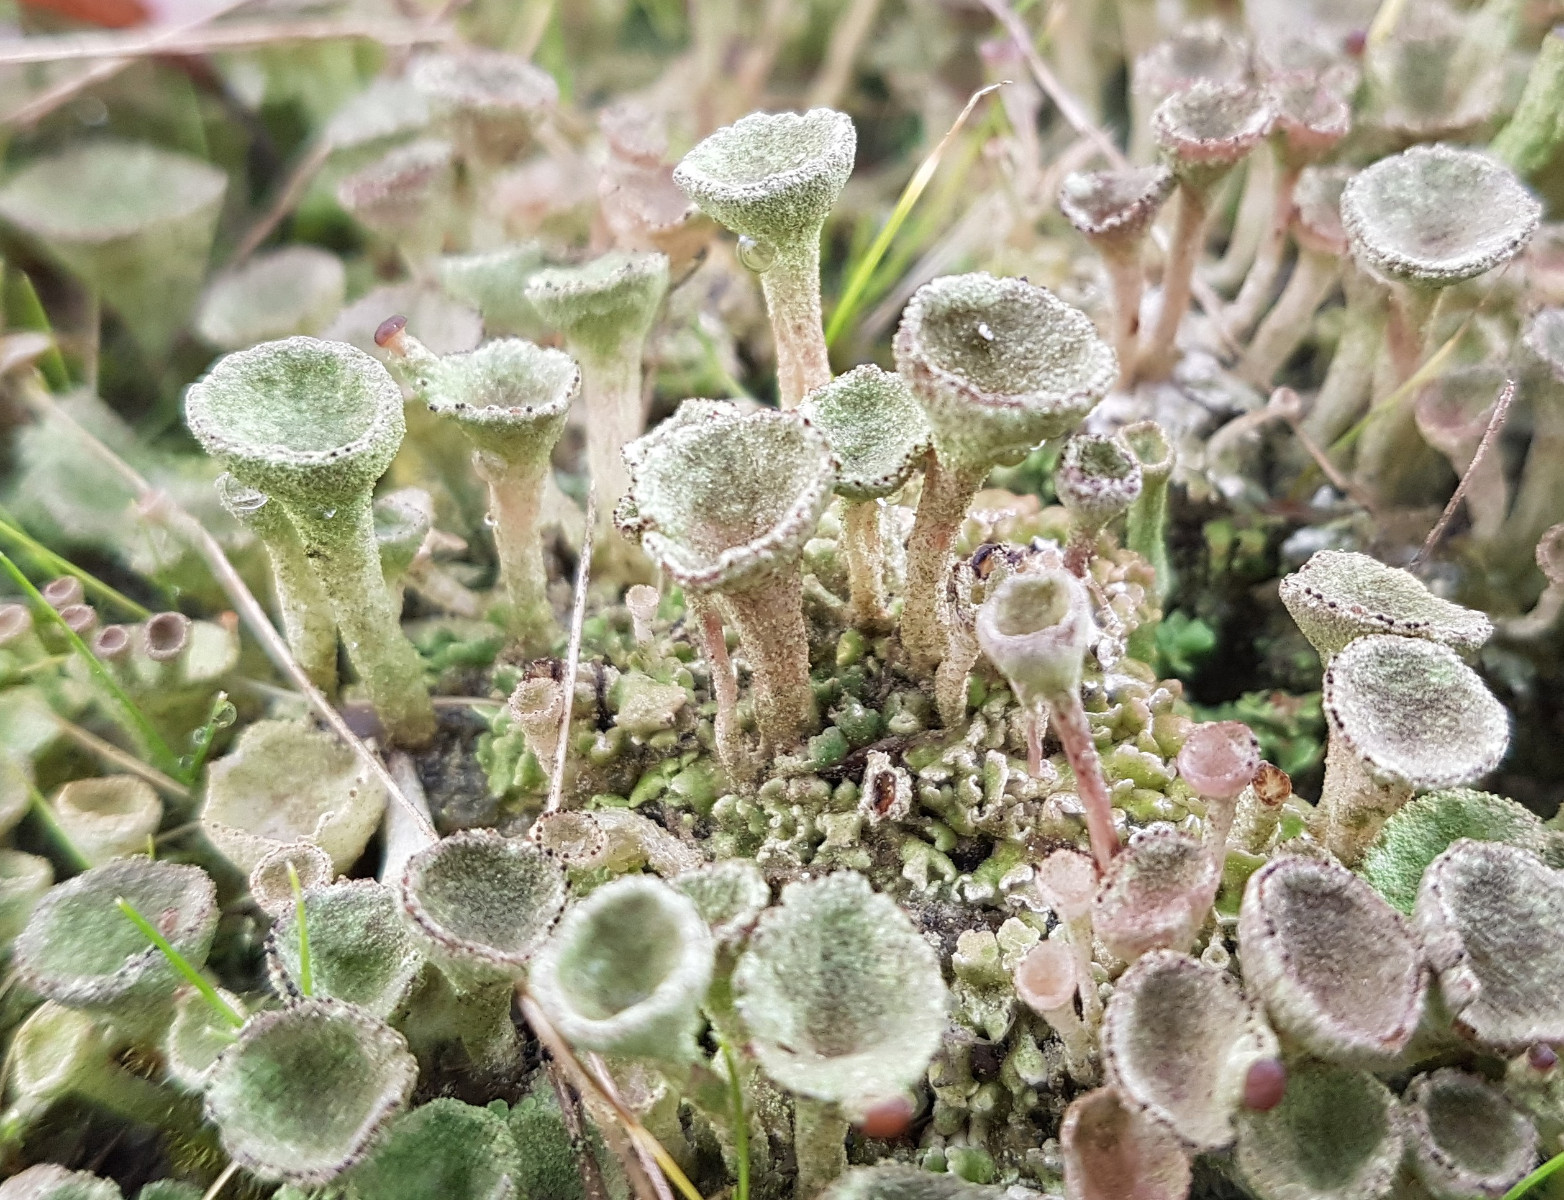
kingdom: Fungi
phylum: Ascomycota
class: Lecanoromycetes
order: Lecanorales
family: Cladoniaceae
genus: Cladonia
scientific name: Cladonia
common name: brungrøn bægerlav
